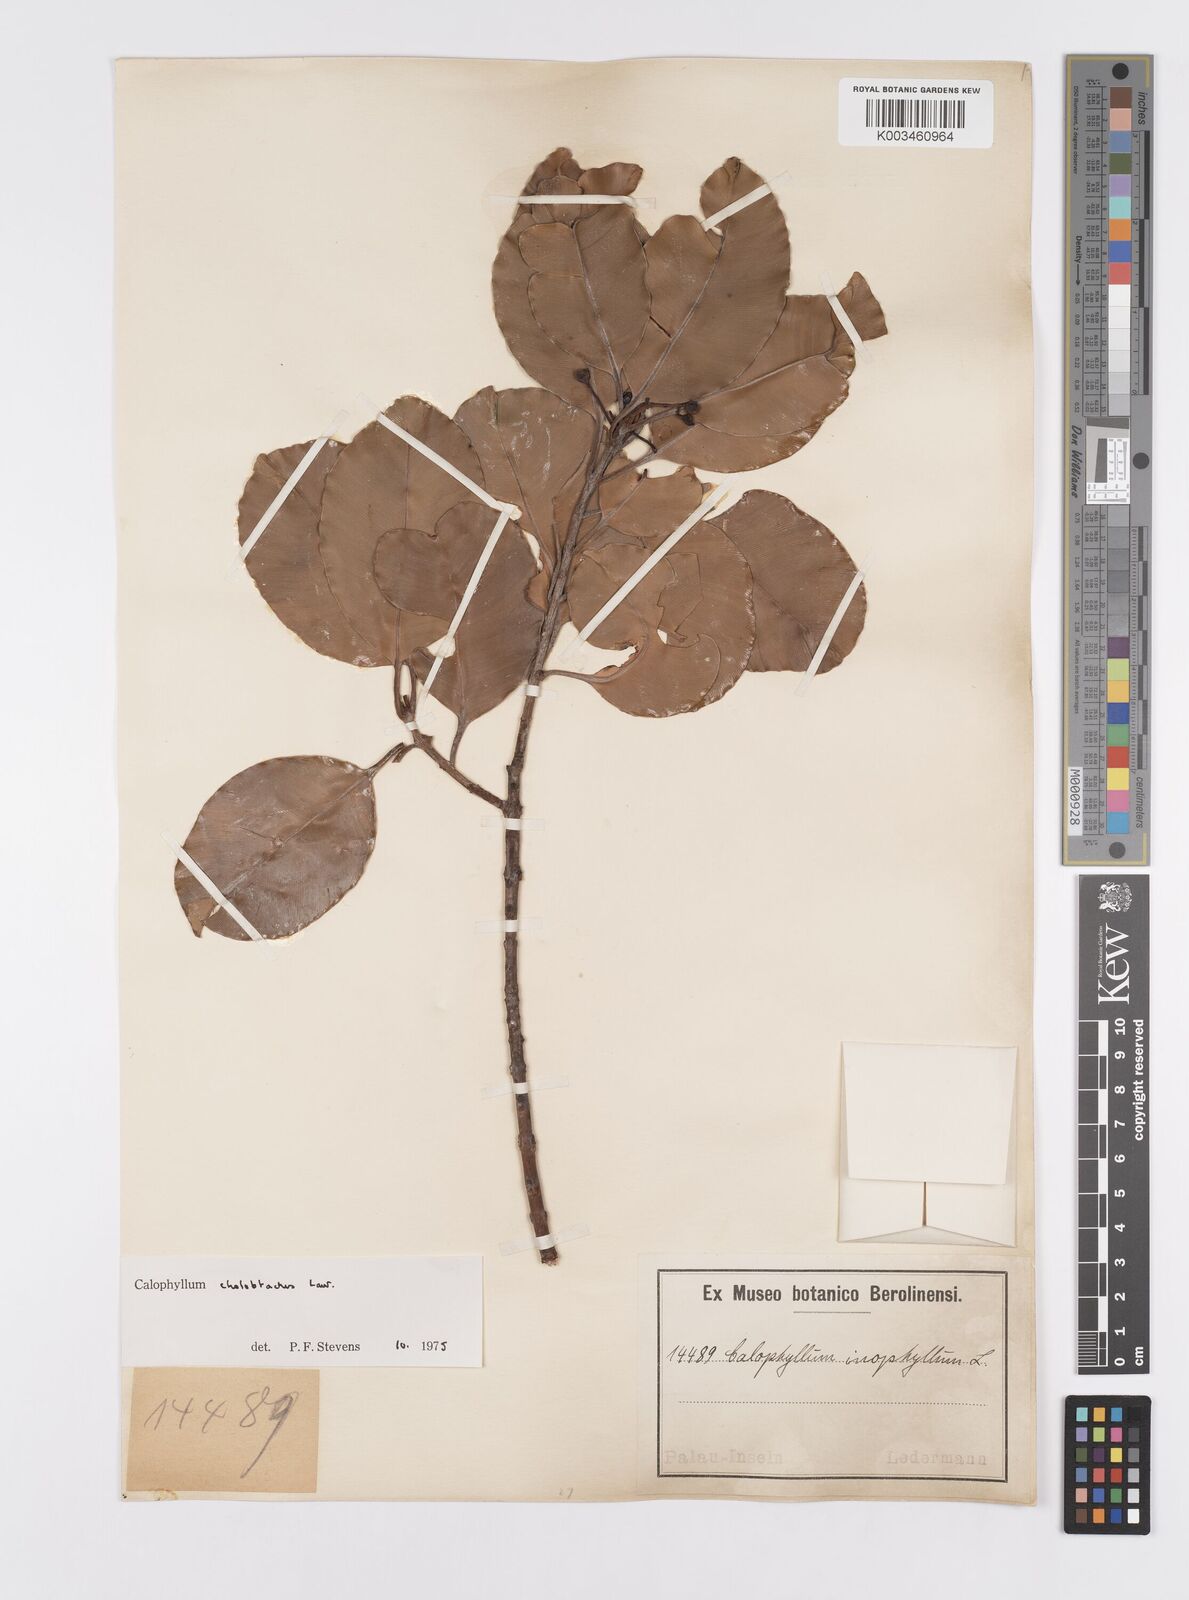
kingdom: Plantae
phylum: Tracheophyta
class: Magnoliopsida
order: Malpighiales
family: Calophyllaceae
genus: Calophyllum
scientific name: Calophyllum soulattri
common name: Bitangoor boonot
